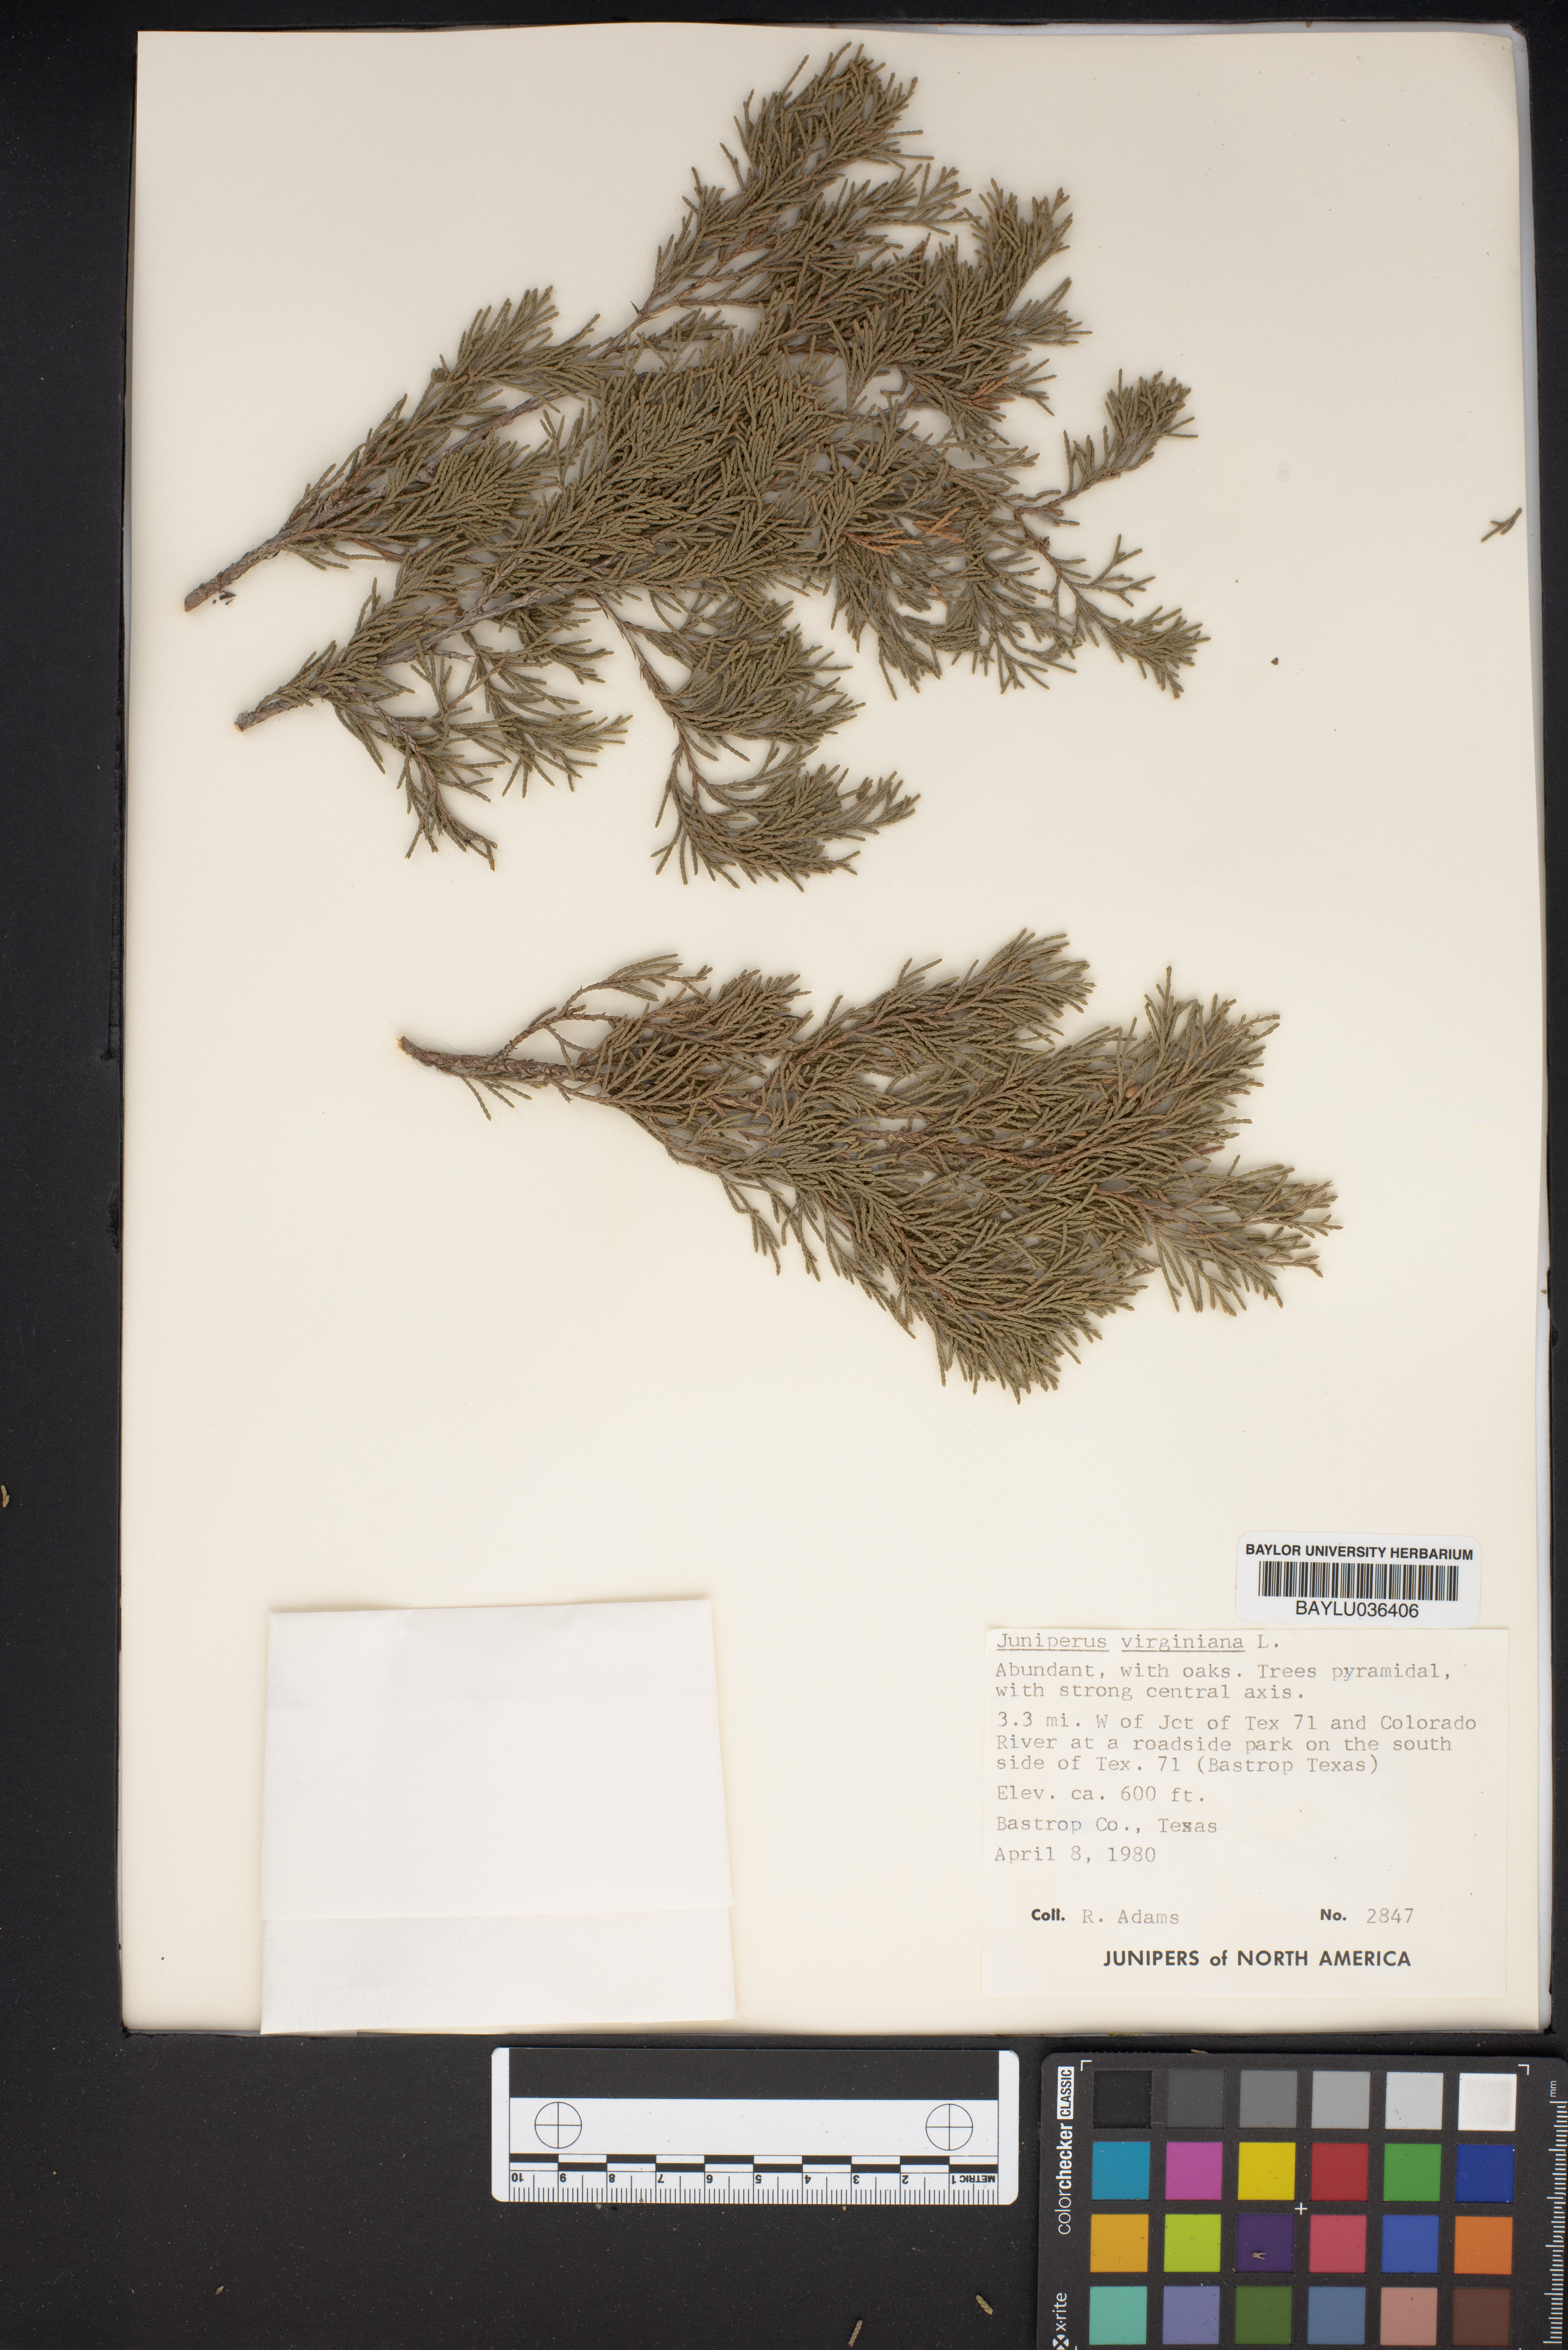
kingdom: Plantae
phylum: Tracheophyta
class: Pinopsida
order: Pinales
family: Cupressaceae
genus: Juniperus
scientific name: Juniperus virginiana
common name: Red juniper
